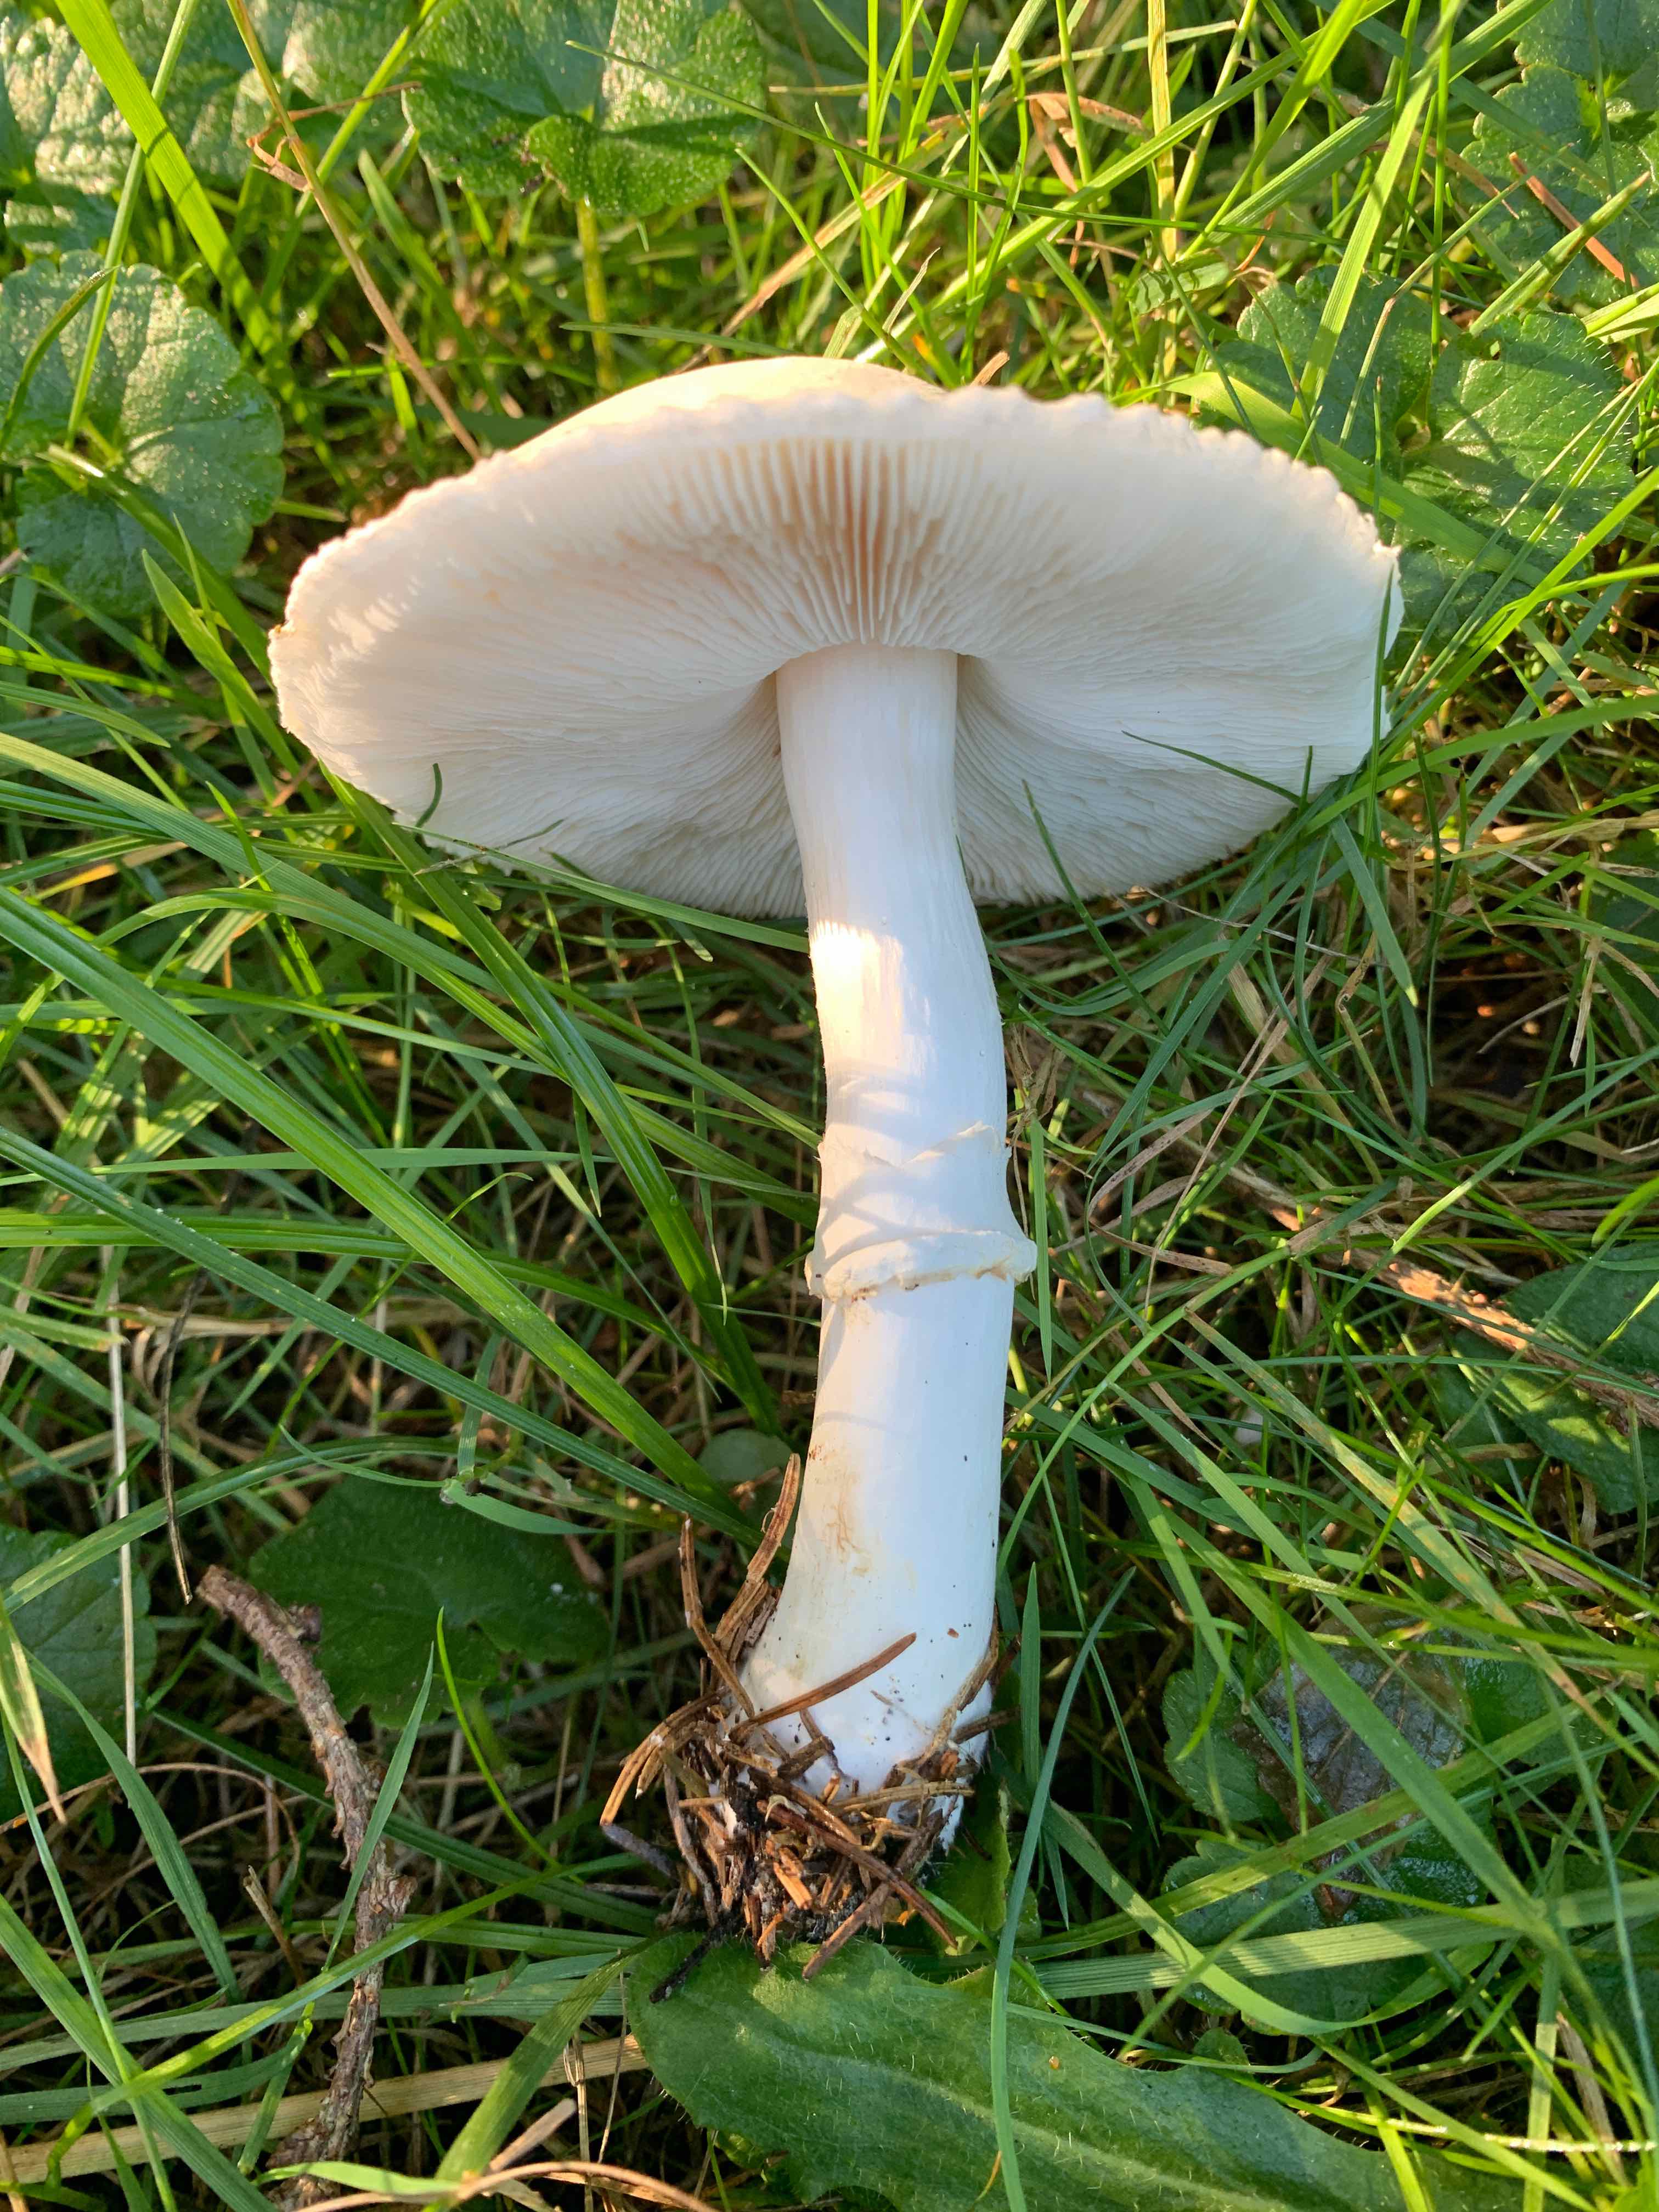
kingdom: Fungi
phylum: Basidiomycota
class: Agaricomycetes
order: Agaricales
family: Agaricaceae
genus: Leucoagaricus
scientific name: Leucoagaricus leucothites
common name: rosabladet silkehat
